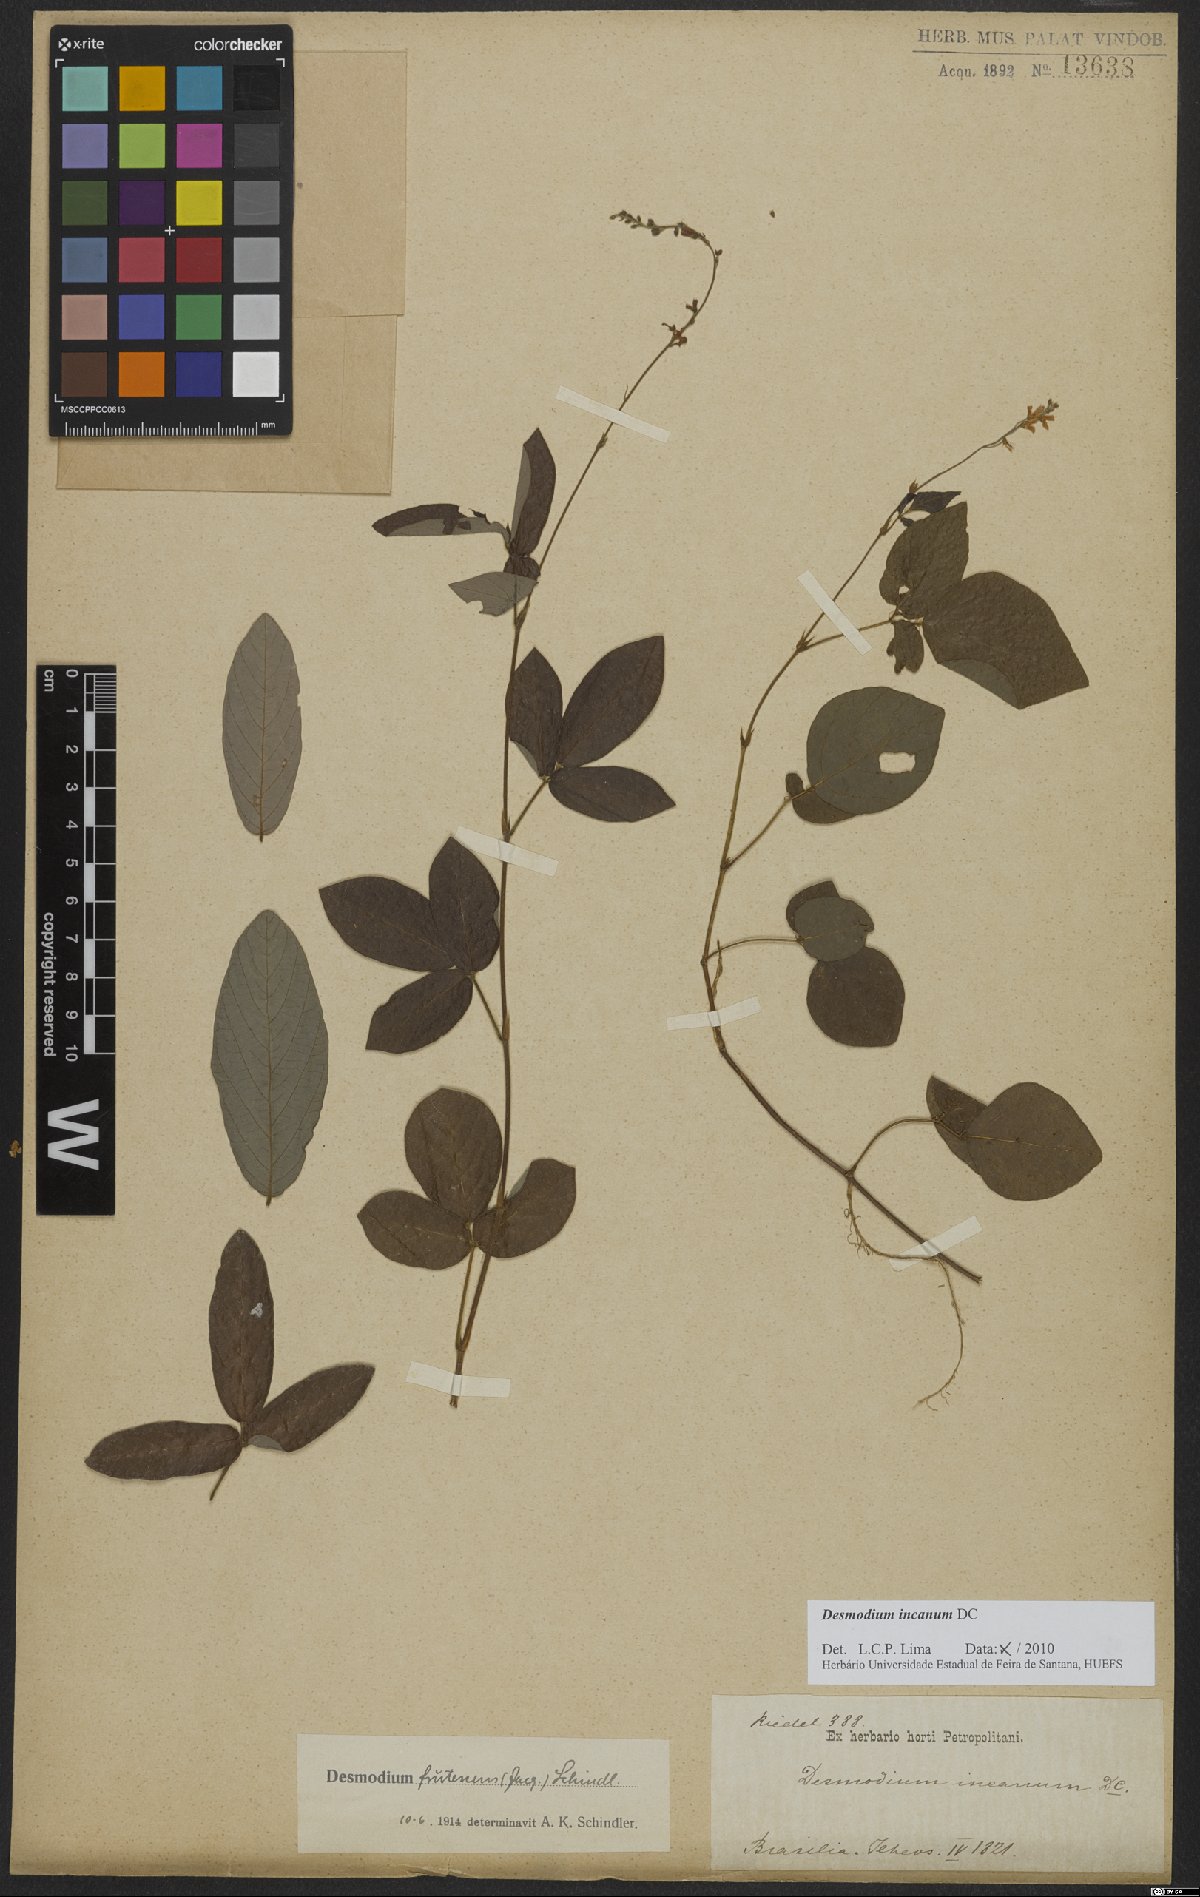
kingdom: Plantae
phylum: Tracheophyta
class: Magnoliopsida
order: Fabales
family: Fabaceae
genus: Desmodium
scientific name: Desmodium incanum
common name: Tickclover
